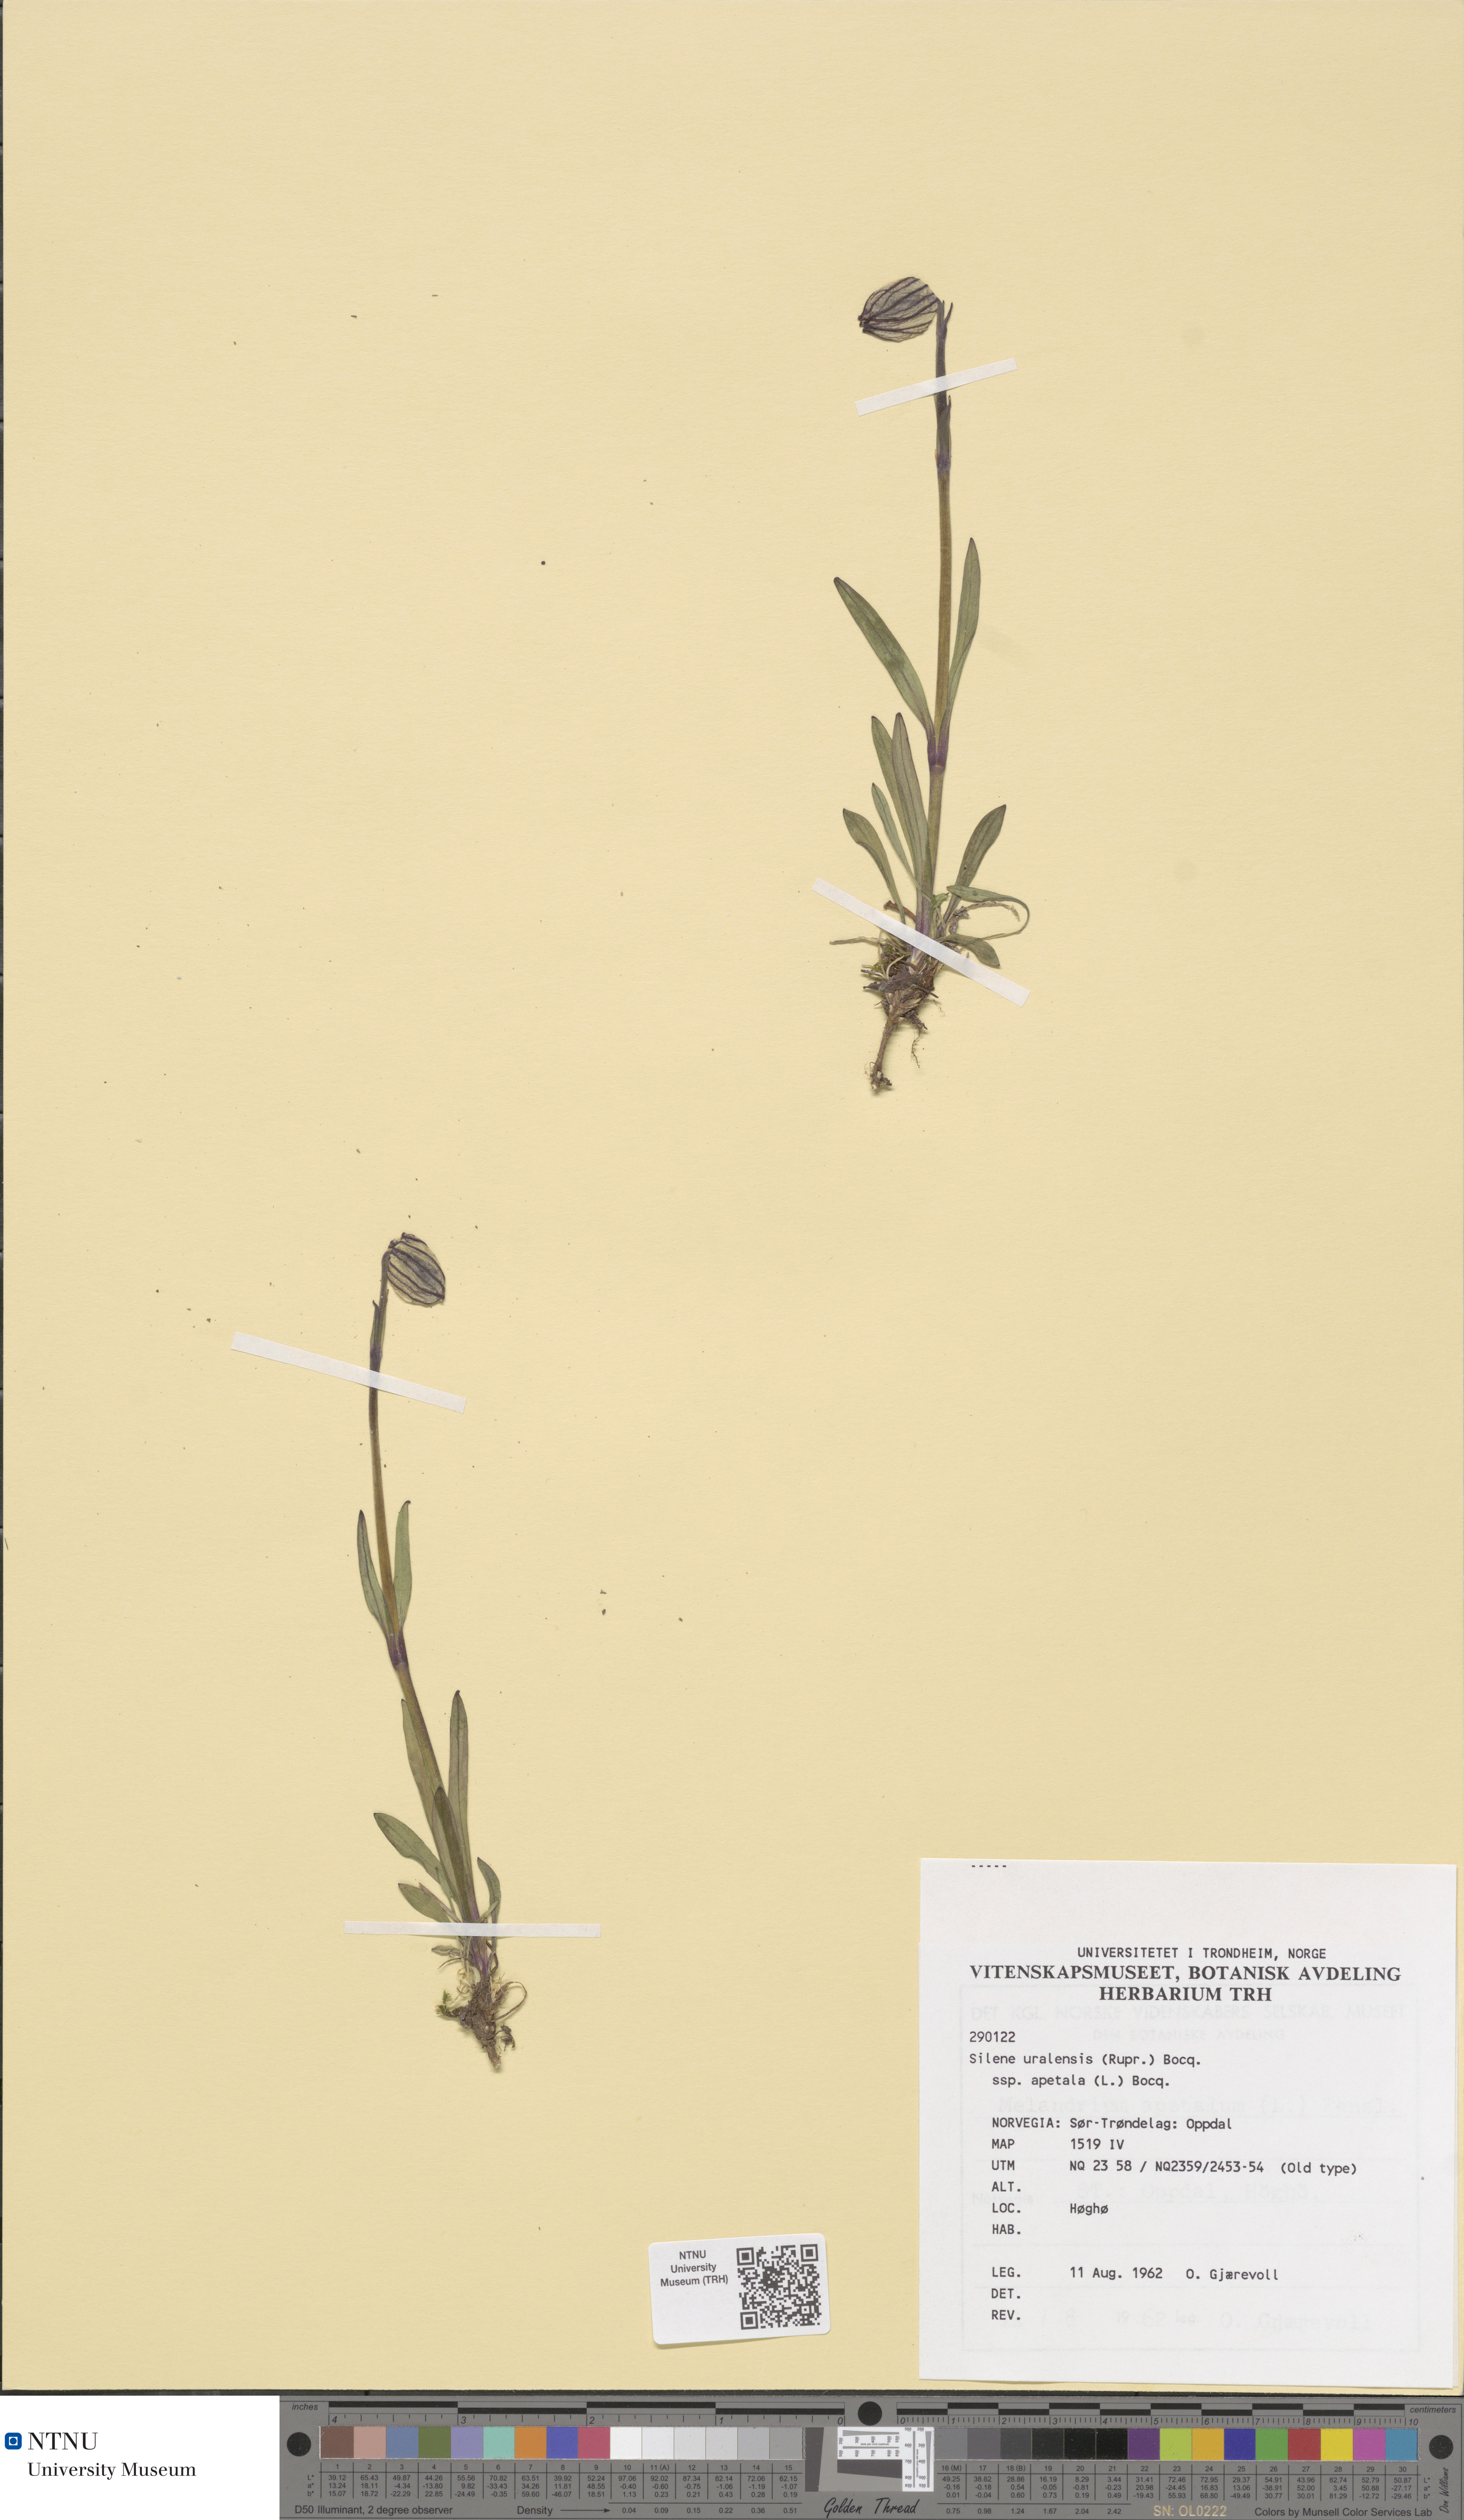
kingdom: Plantae
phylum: Tracheophyta
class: Magnoliopsida
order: Caryophyllales
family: Caryophyllaceae
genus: Silene
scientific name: Silene wahlbergella
